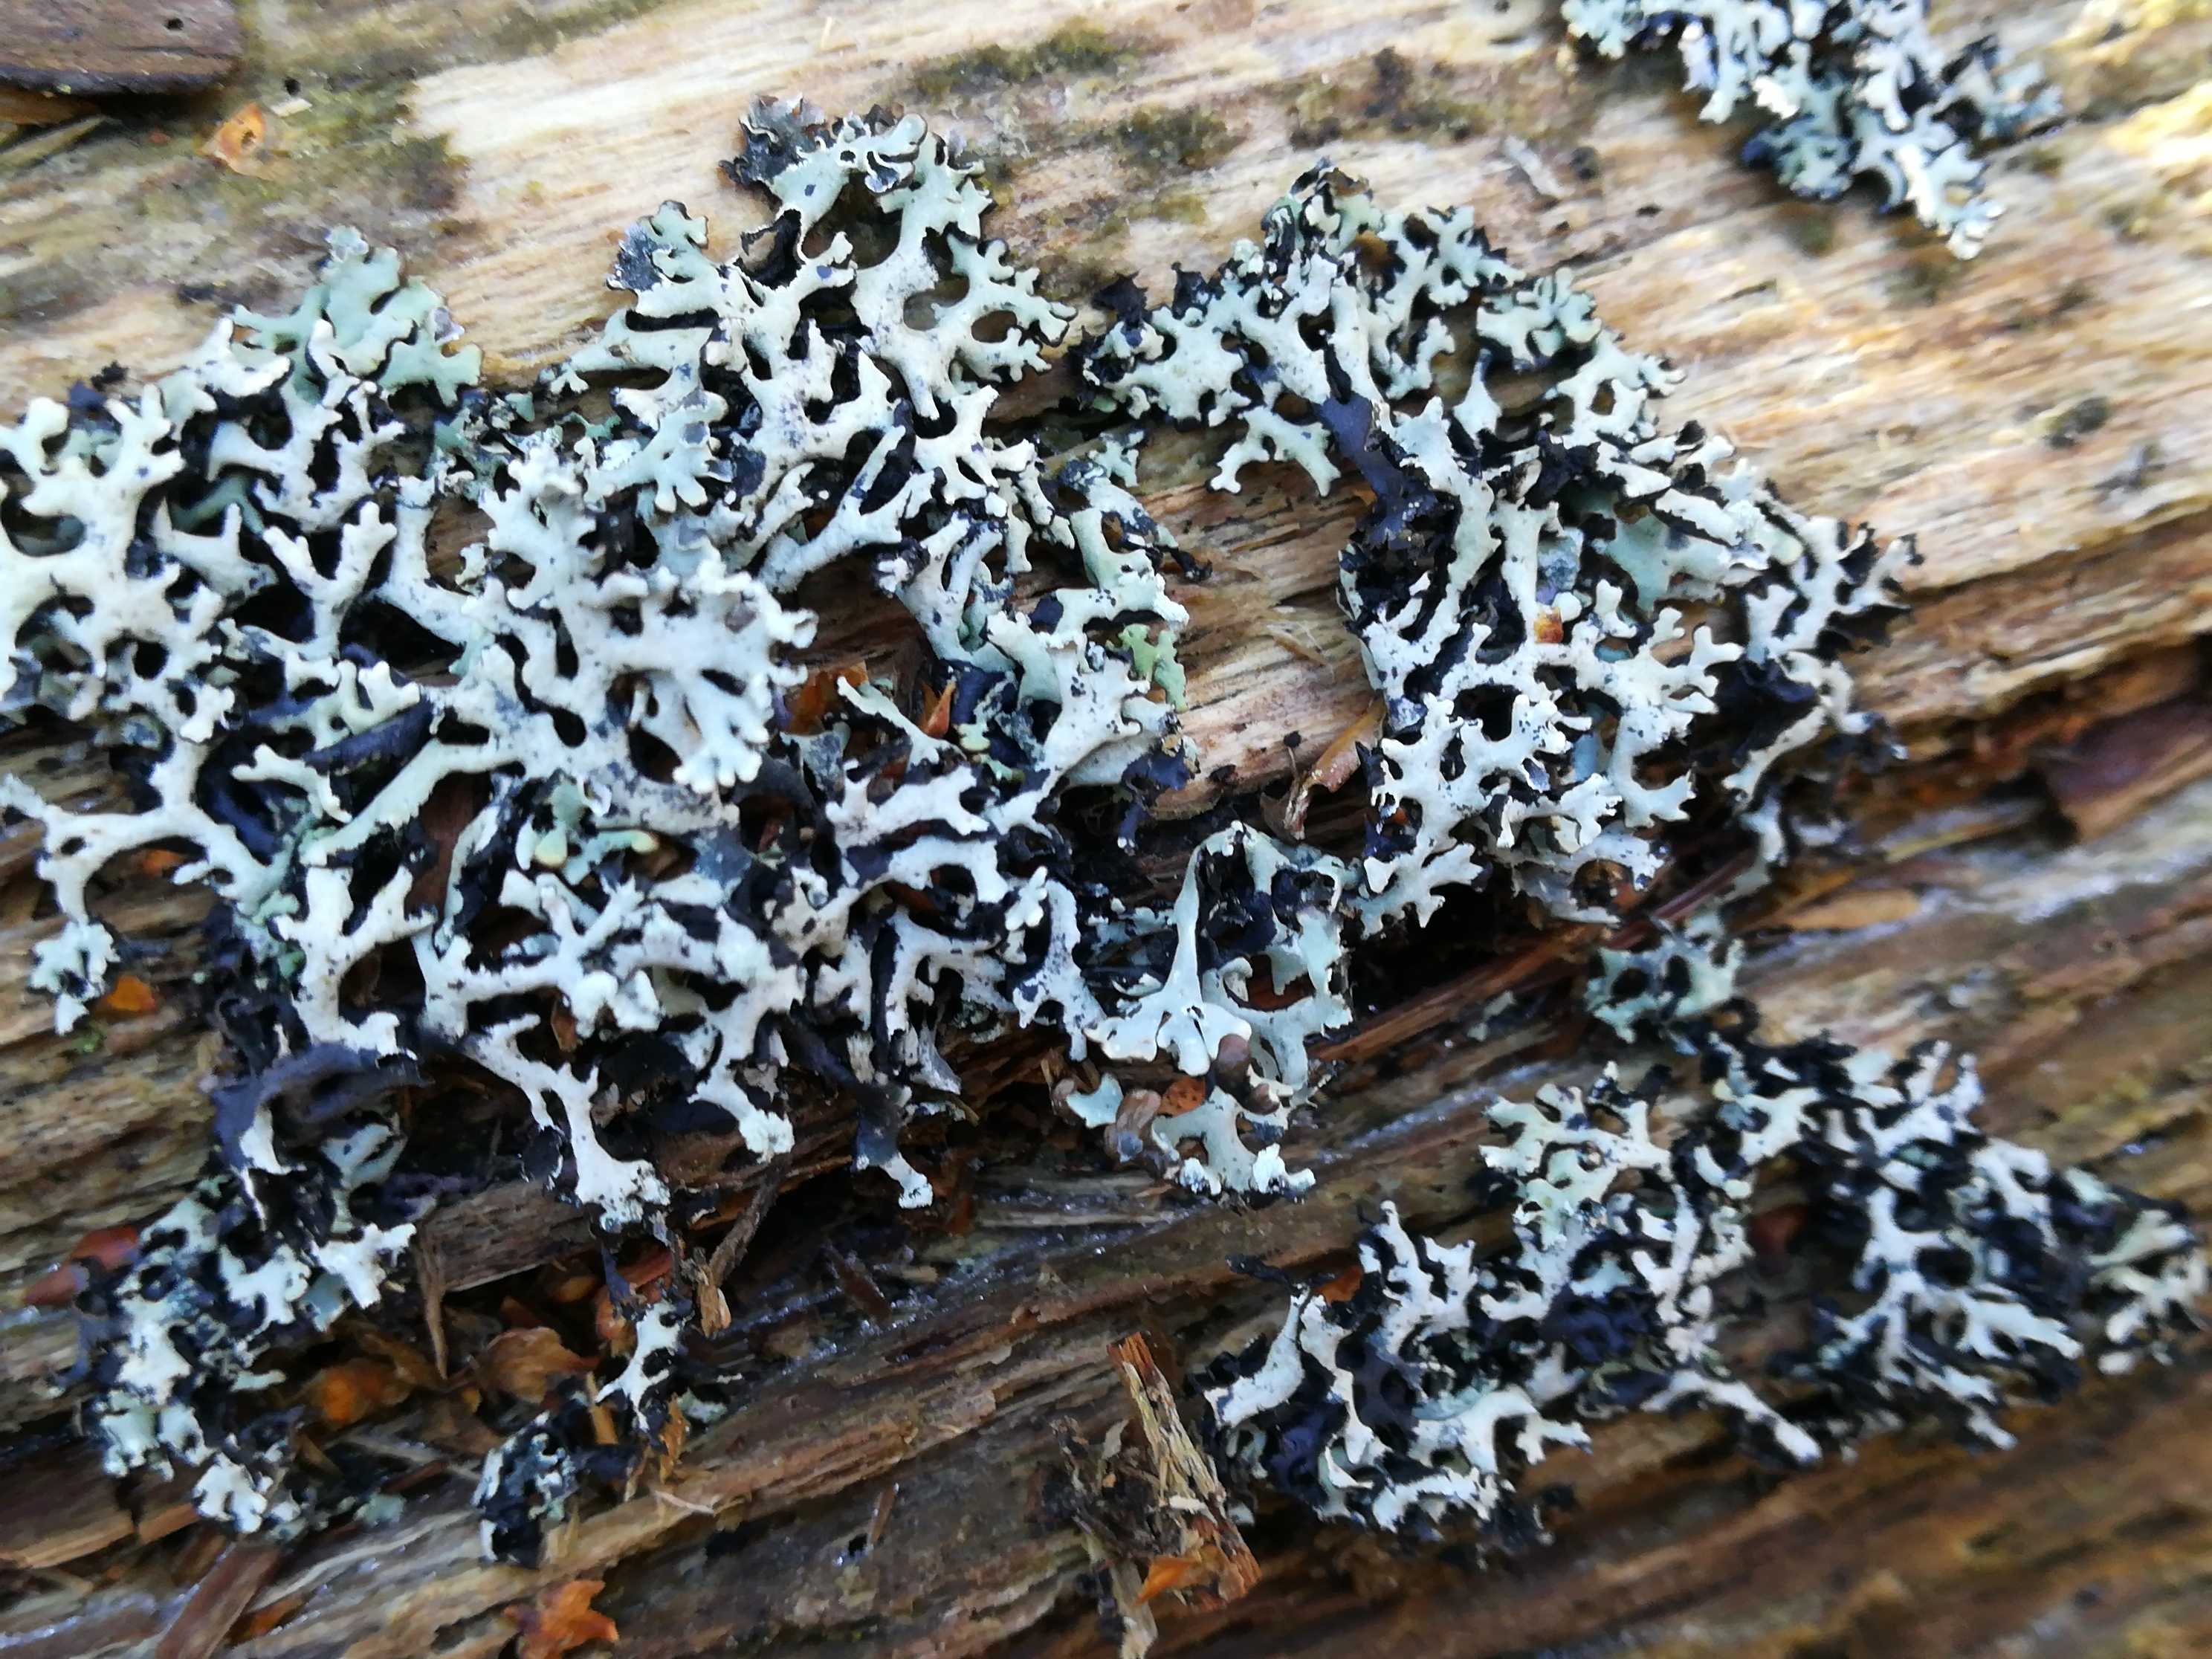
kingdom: Fungi
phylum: Ascomycota
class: Lecanoromycetes
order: Lecanorales
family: Parmeliaceae
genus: Hypogymnia
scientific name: Hypogymnia physodes
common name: almindelig kvistlav
